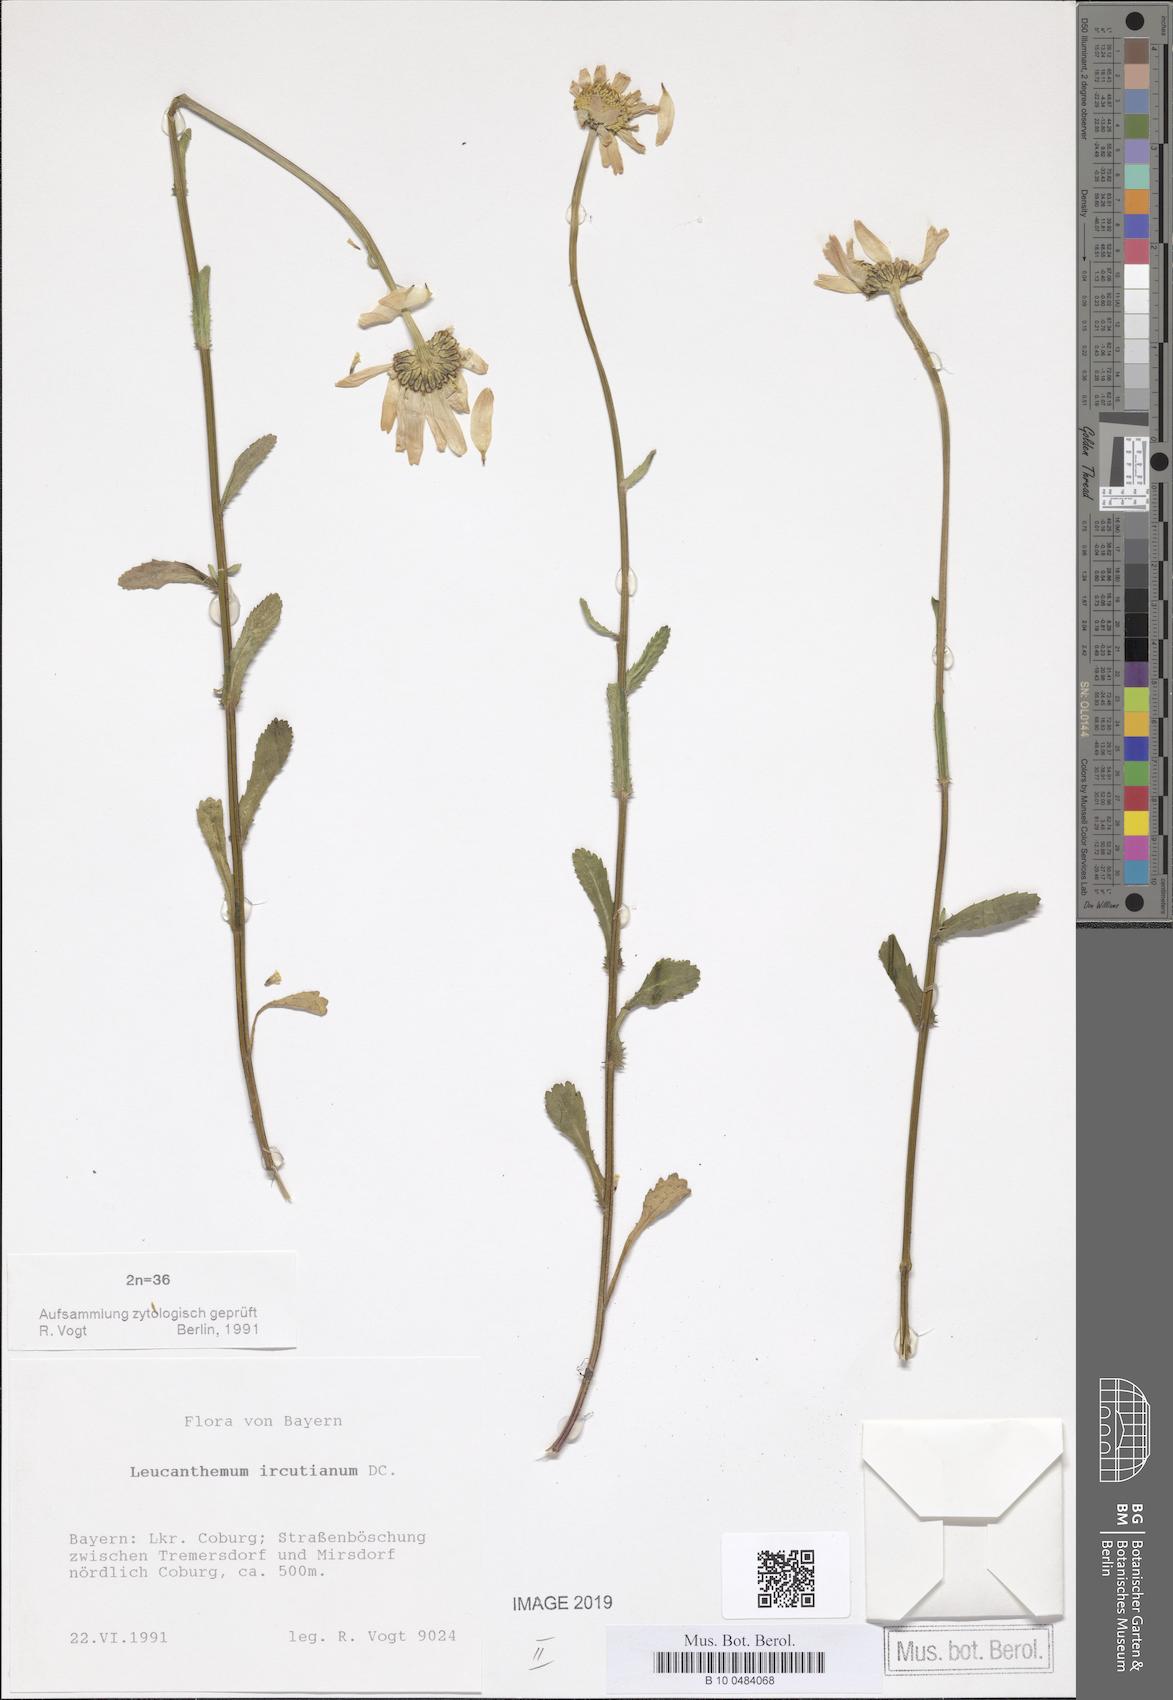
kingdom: Plantae
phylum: Tracheophyta
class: Magnoliopsida
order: Asterales
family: Asteraceae
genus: Leucanthemum
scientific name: Leucanthemum ircutianum
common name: Daisy
